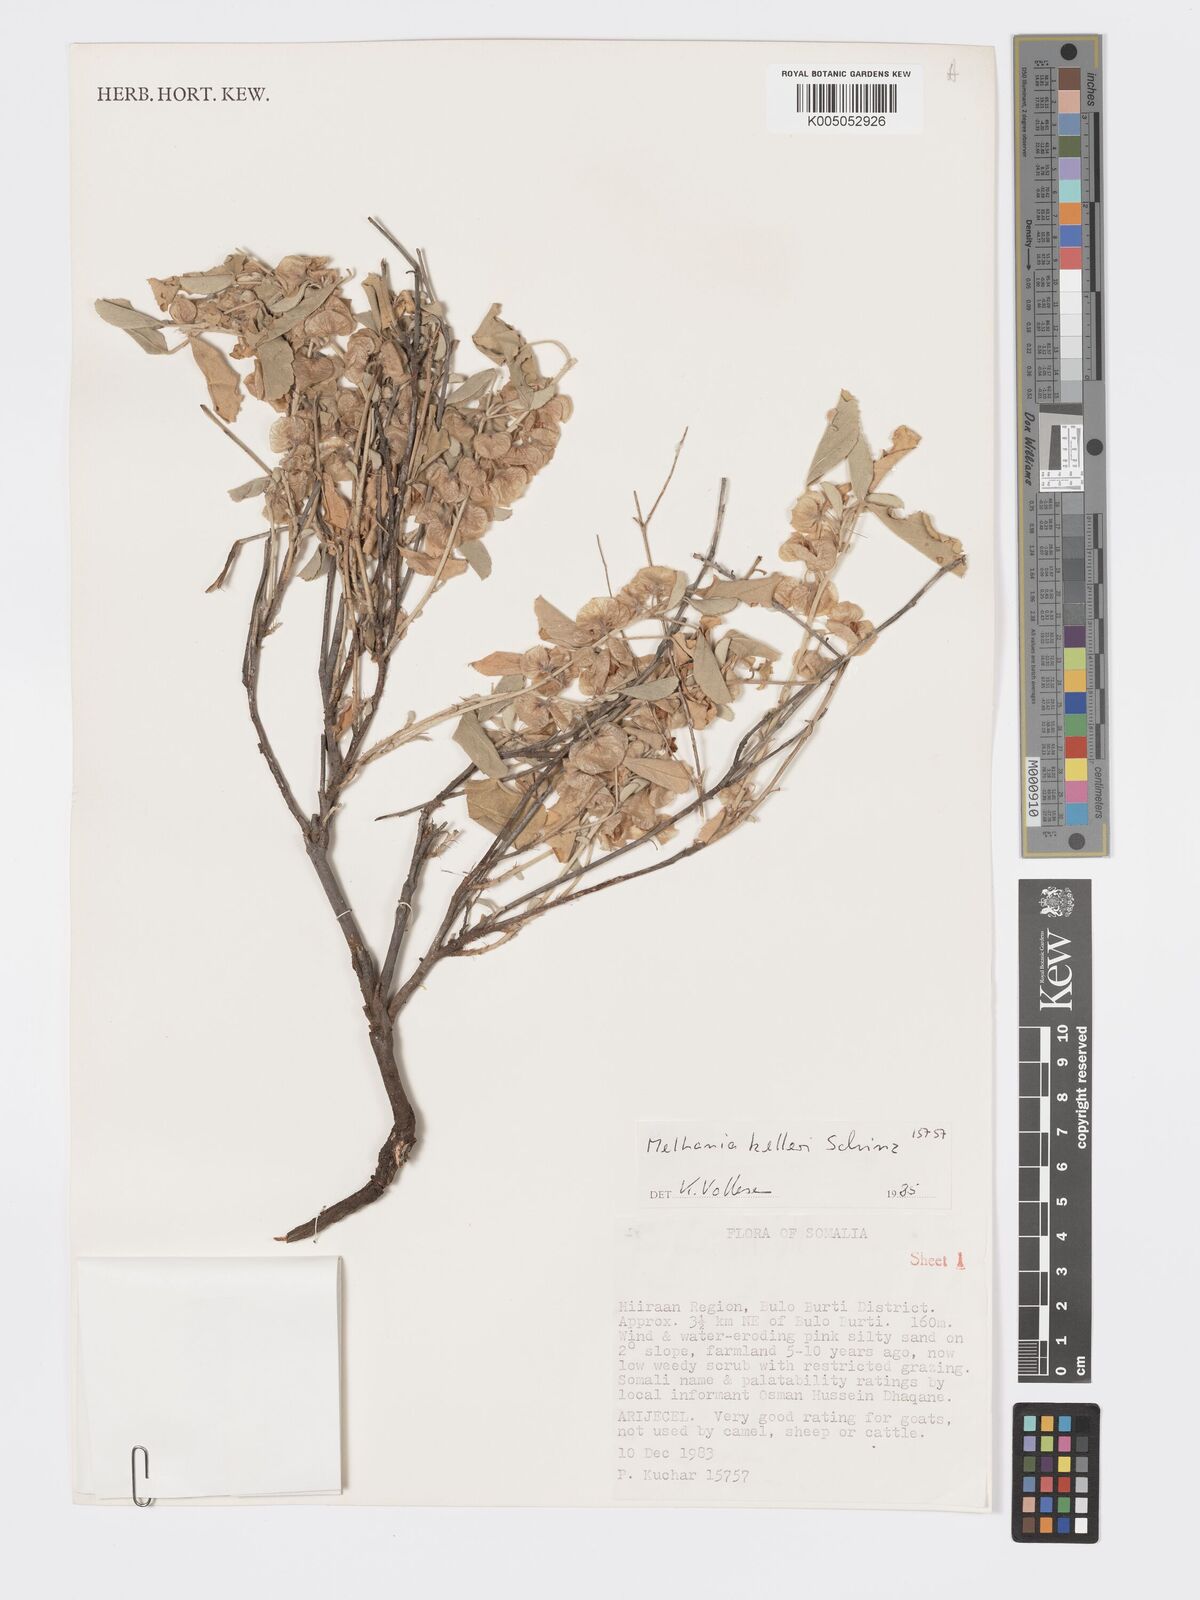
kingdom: Plantae
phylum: Tracheophyta
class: Magnoliopsida
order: Malvales
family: Malvaceae
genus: Melhania
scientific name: Melhania kelleri
